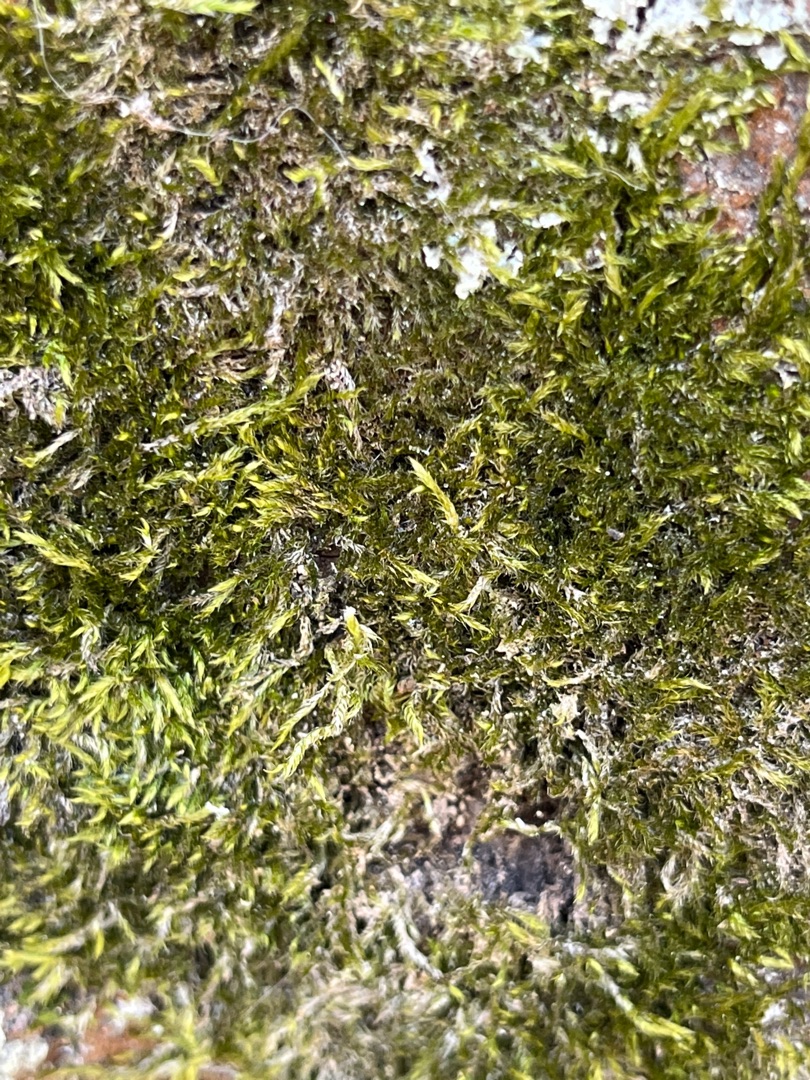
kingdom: Plantae
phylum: Bryophyta
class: Bryopsida
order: Hypnales
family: Hypnaceae
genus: Hypnum
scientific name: Hypnum
